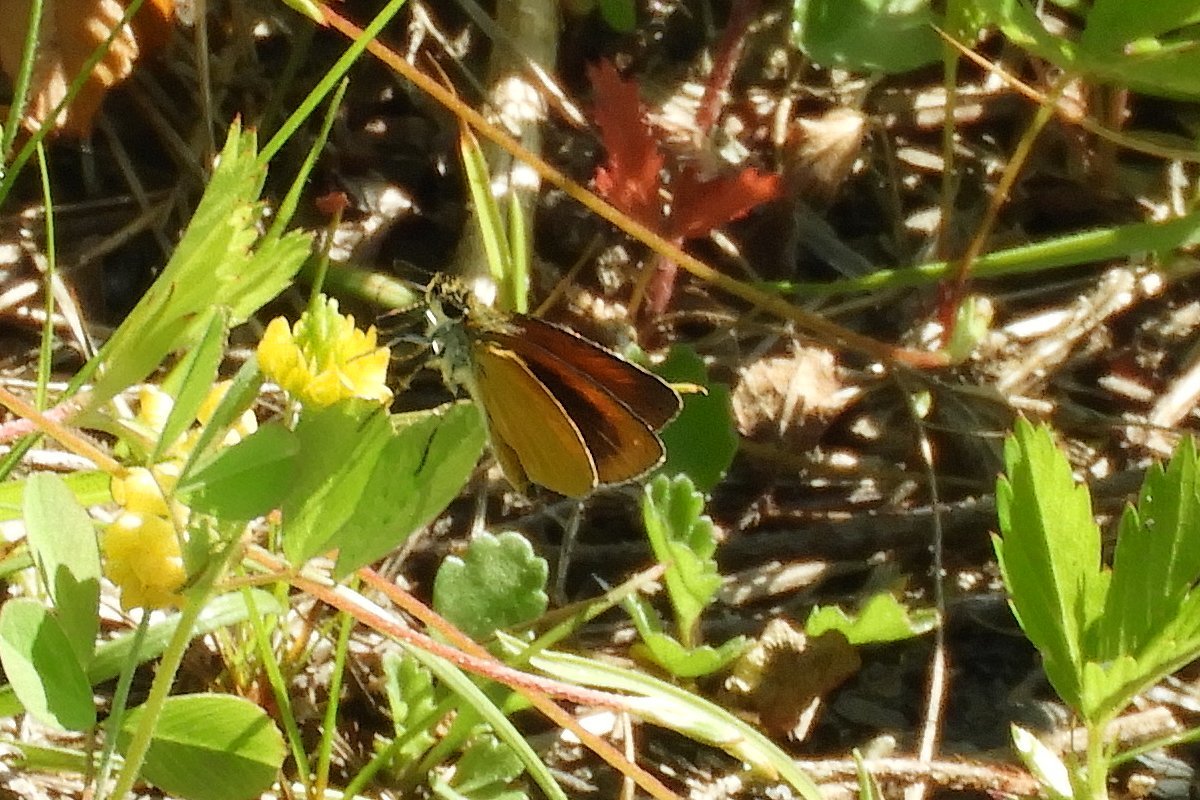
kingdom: Animalia
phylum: Arthropoda
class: Insecta
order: Lepidoptera
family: Hesperiidae
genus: Ancyloxypha
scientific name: Ancyloxypha numitor
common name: Least Skipper
